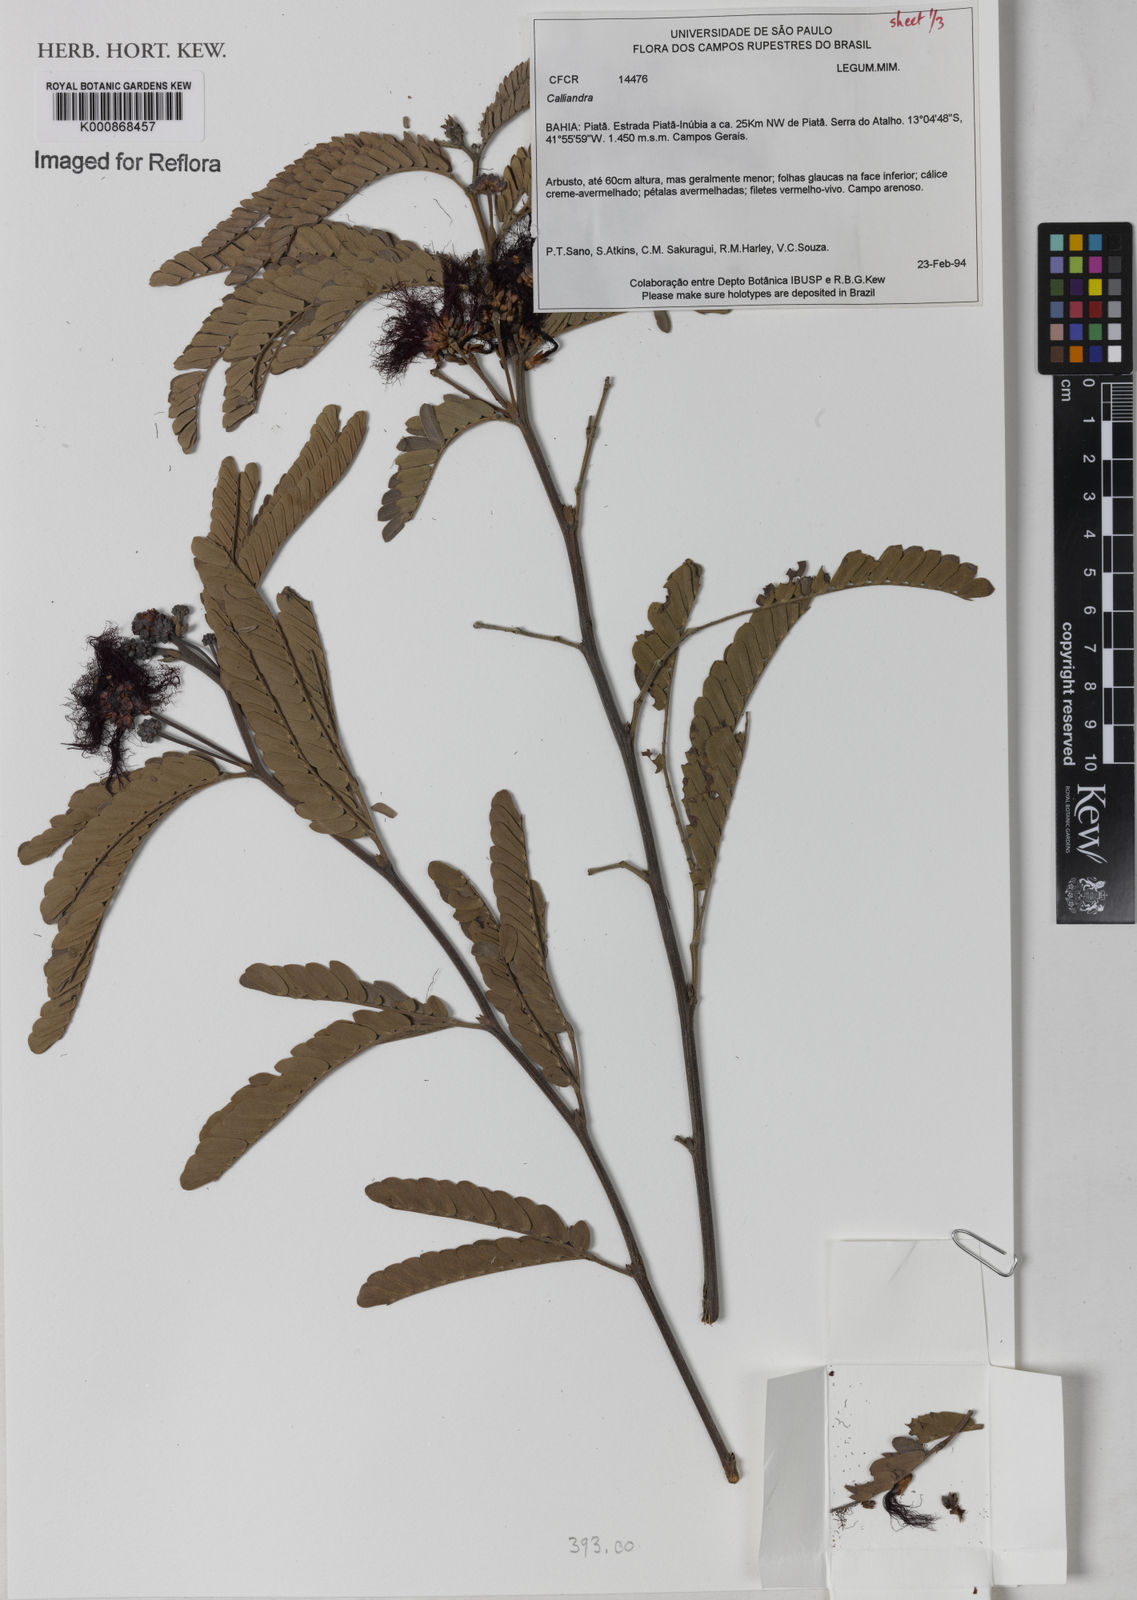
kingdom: Plantae
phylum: Tracheophyta
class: Magnoliopsida
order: Fabales
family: Fabaceae
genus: Calliandra
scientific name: Calliandra
